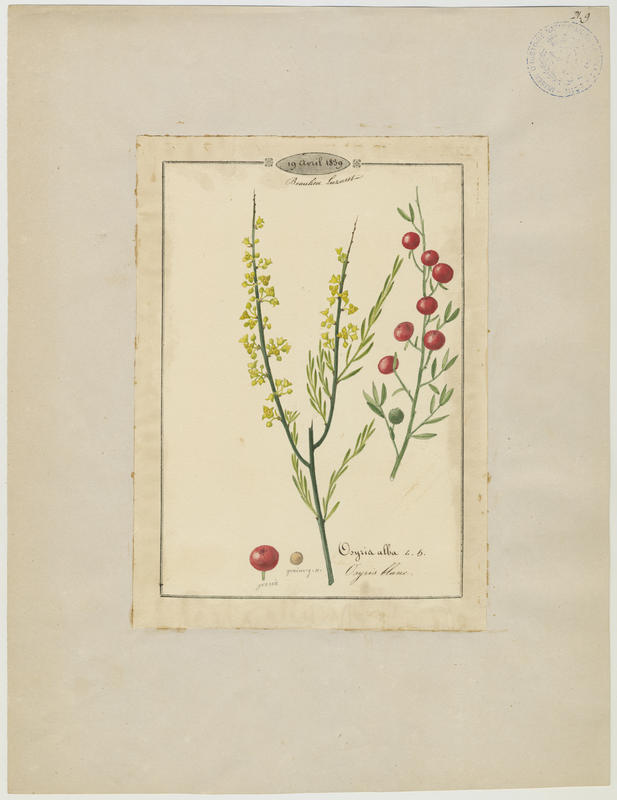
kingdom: Plantae
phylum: Tracheophyta
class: Magnoliopsida
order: Santalales
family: Santalaceae
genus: Osyris
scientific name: Osyris alba
